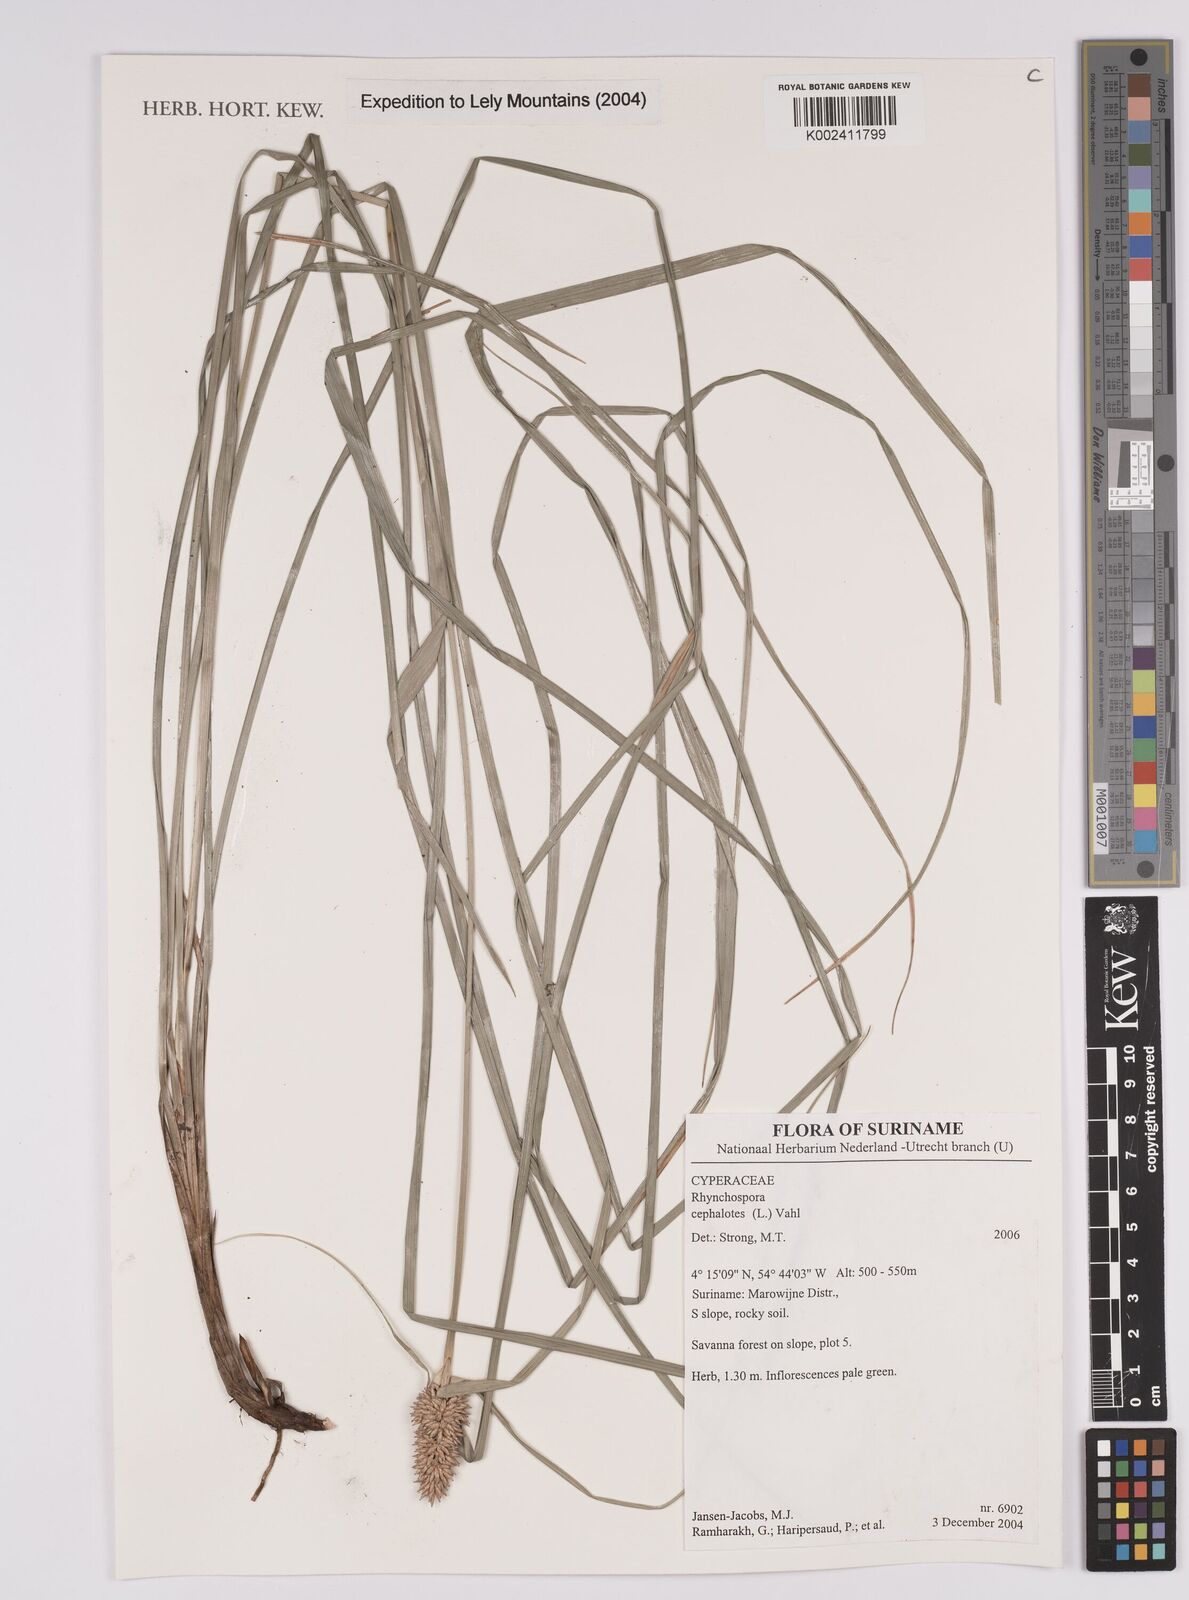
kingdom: Plantae
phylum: Tracheophyta
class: Liliopsida
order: Poales
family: Cyperaceae
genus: Rhynchospora
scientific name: Rhynchospora cephalotes
